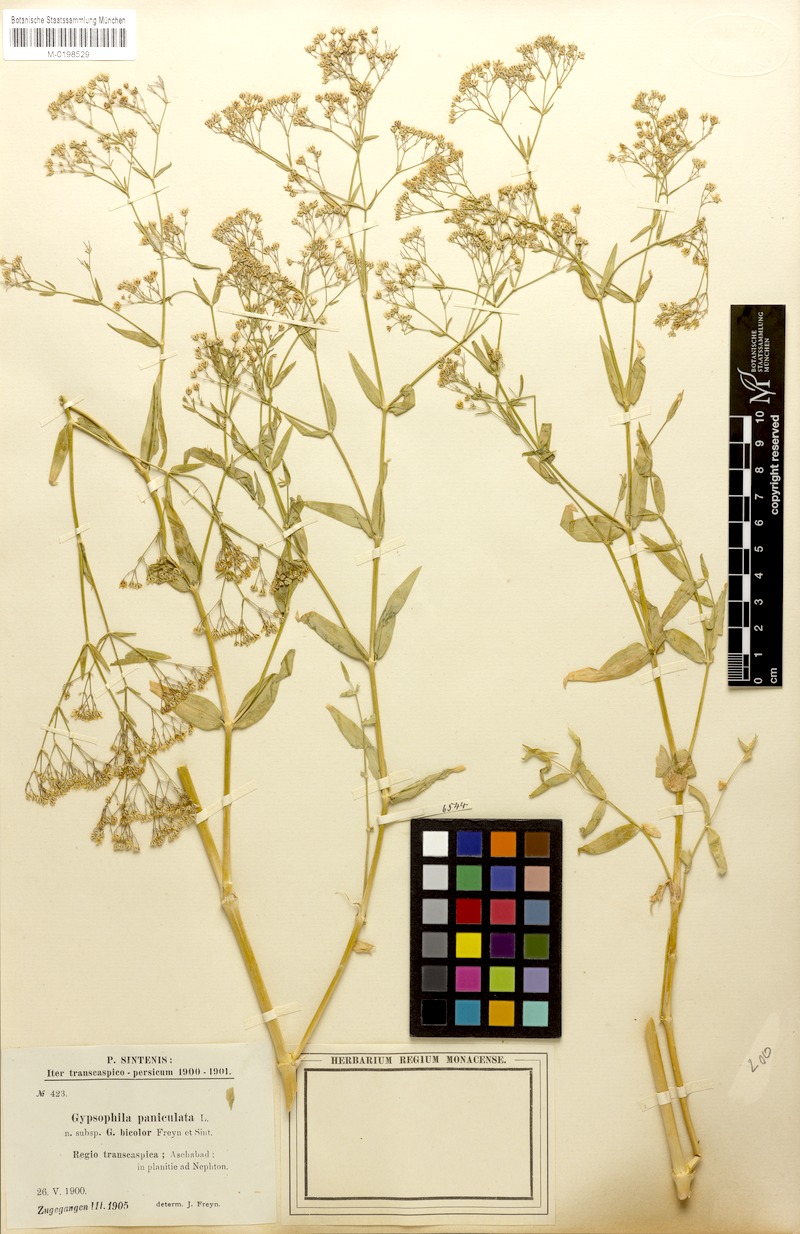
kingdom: Plantae
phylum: Tracheophyta
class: Magnoliopsida
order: Caryophyllales
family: Caryophyllaceae
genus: Gypsophila
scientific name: Gypsophila bicolor
